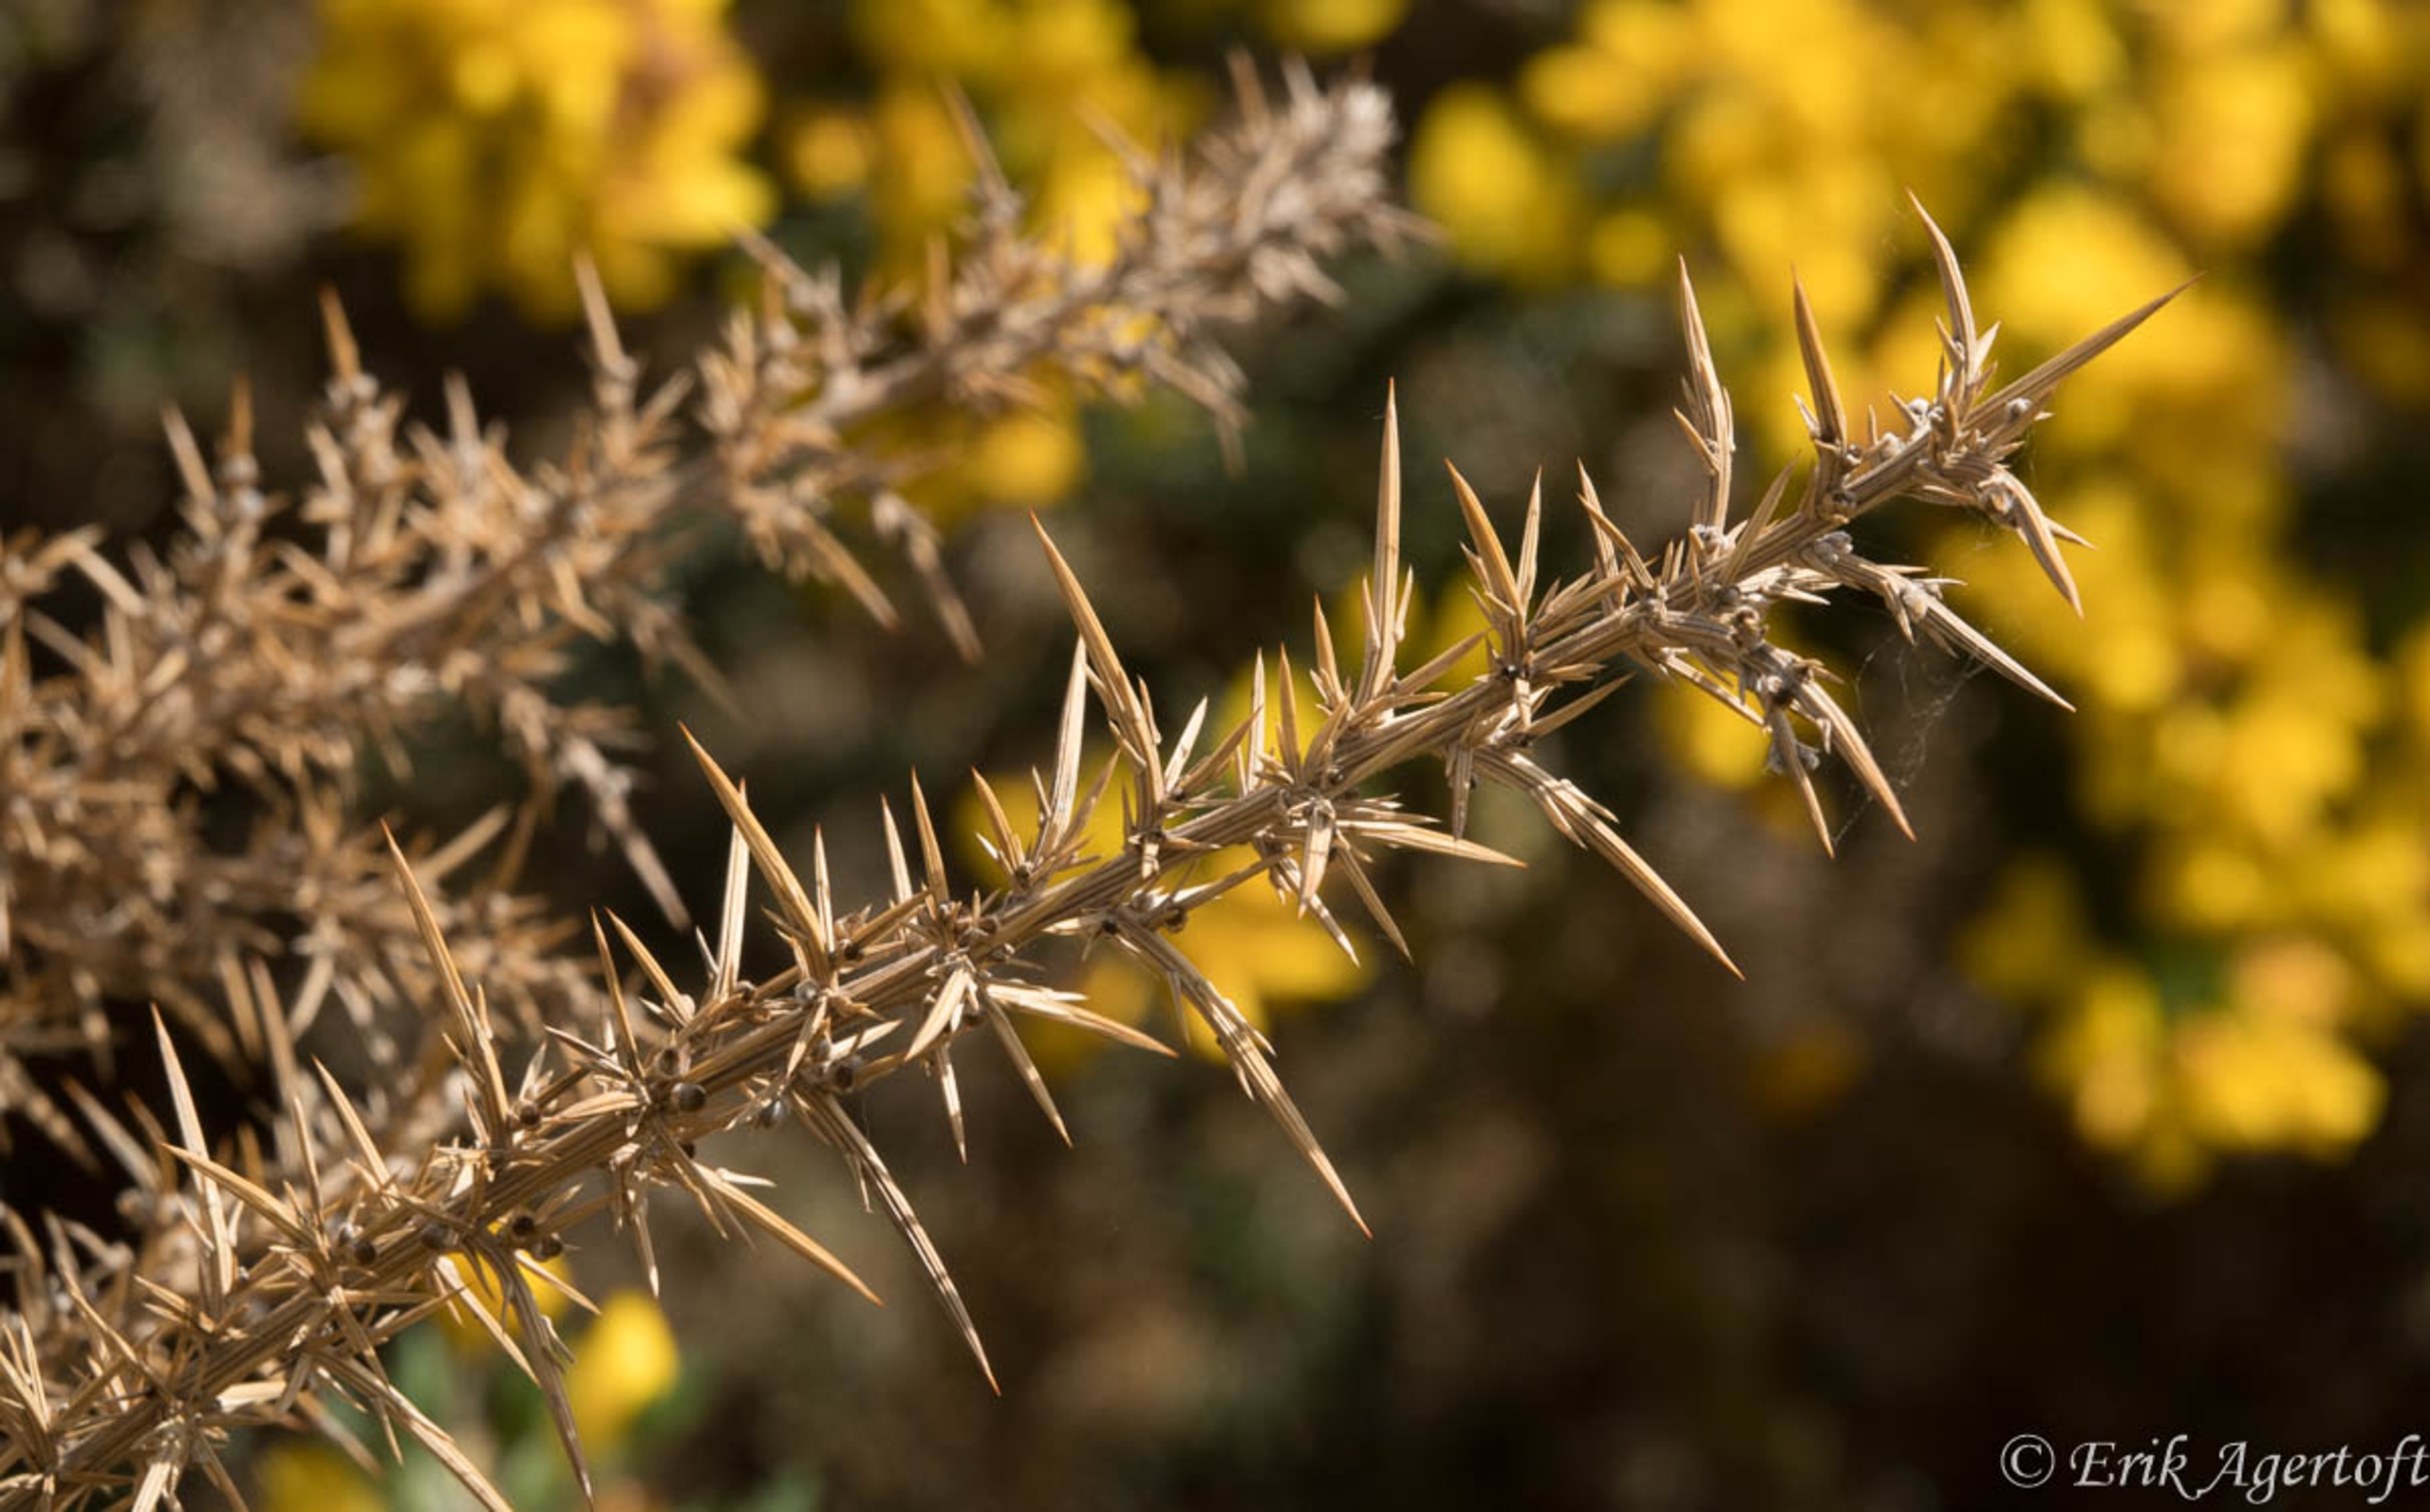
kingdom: Plantae
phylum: Tracheophyta
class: Magnoliopsida
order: Fabales
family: Fabaceae
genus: Ulex
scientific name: Ulex europaeus
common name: Tornblad
